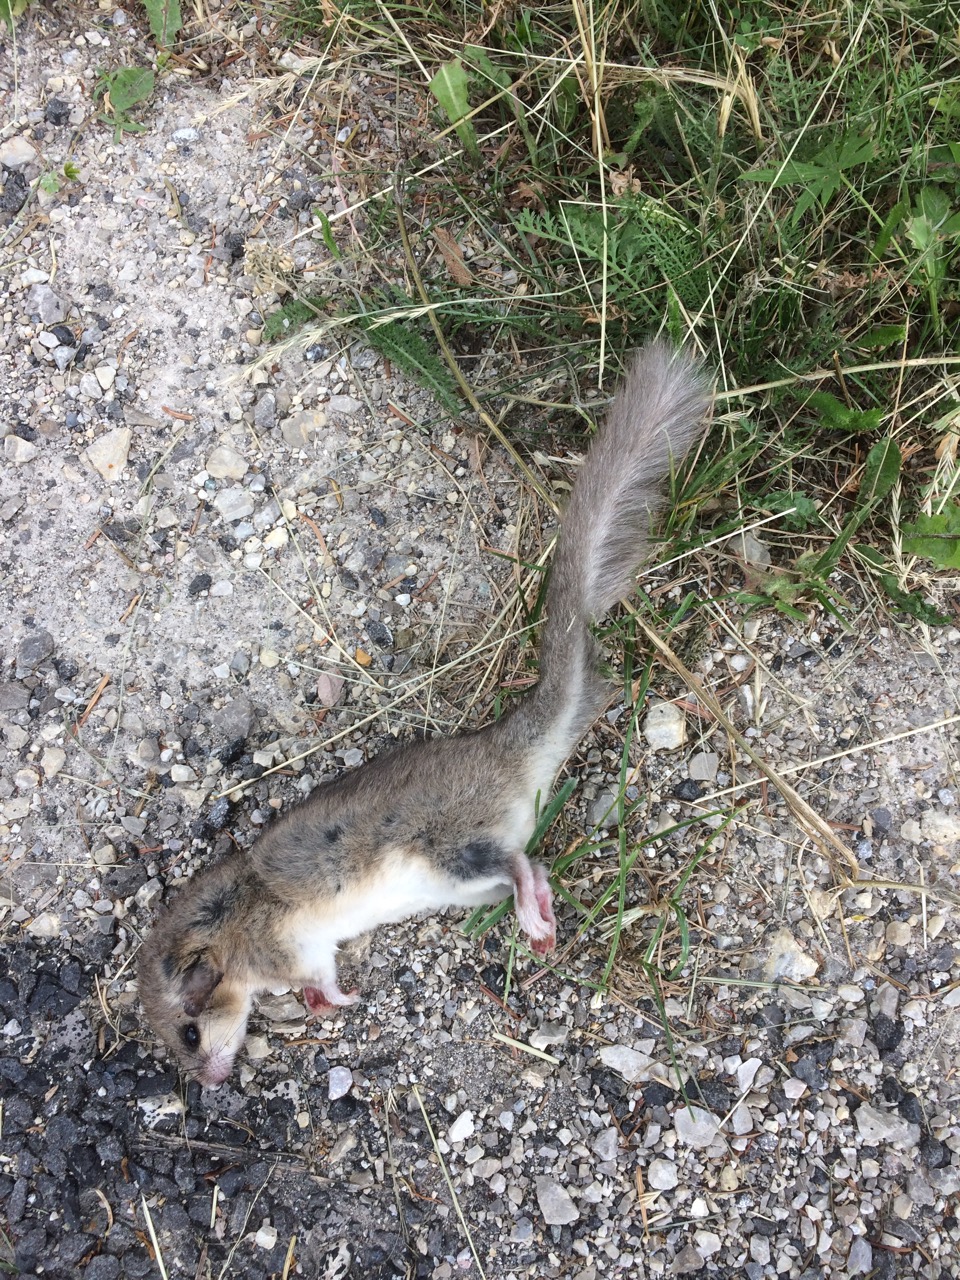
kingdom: Animalia
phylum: Chordata
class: Mammalia
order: Rodentia
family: Gliridae
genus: Glis
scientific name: Glis glis
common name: Fat dormouse
